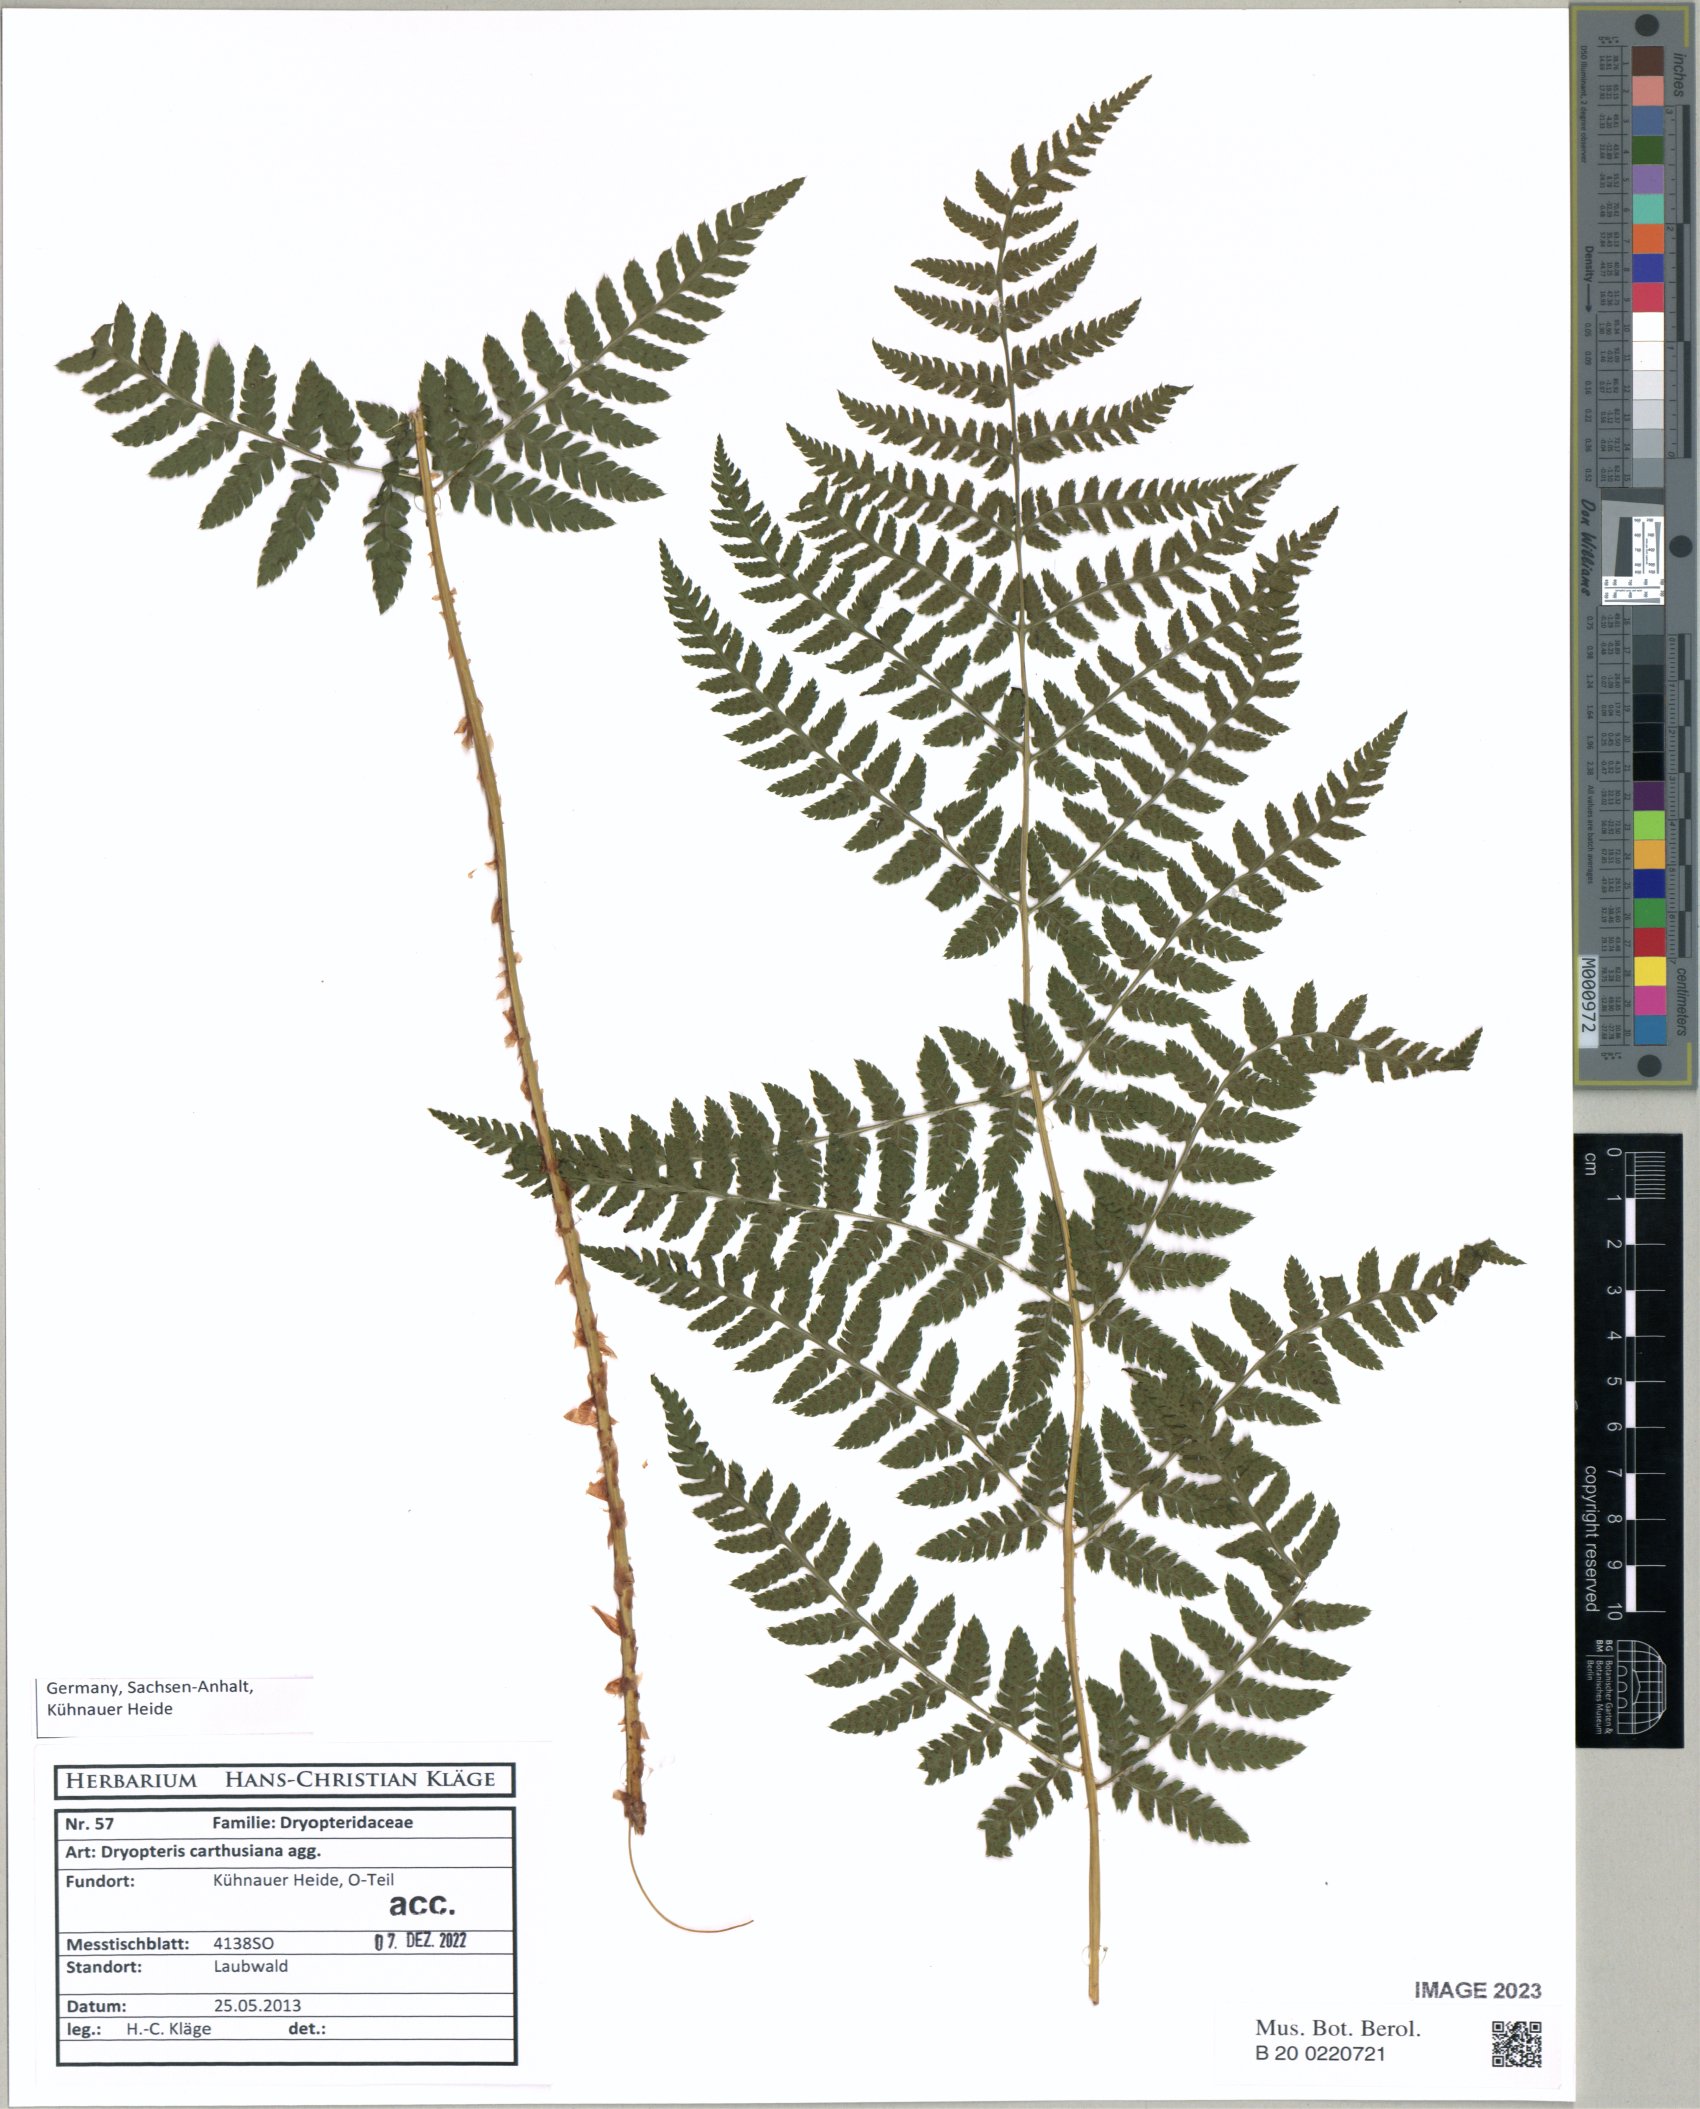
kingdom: Plantae
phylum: Tracheophyta
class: Polypodiopsida
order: Polypodiales
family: Dryopteridaceae
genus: Dryopteris
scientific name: Dryopteris carthusiana
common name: Narrow buckler-fern
